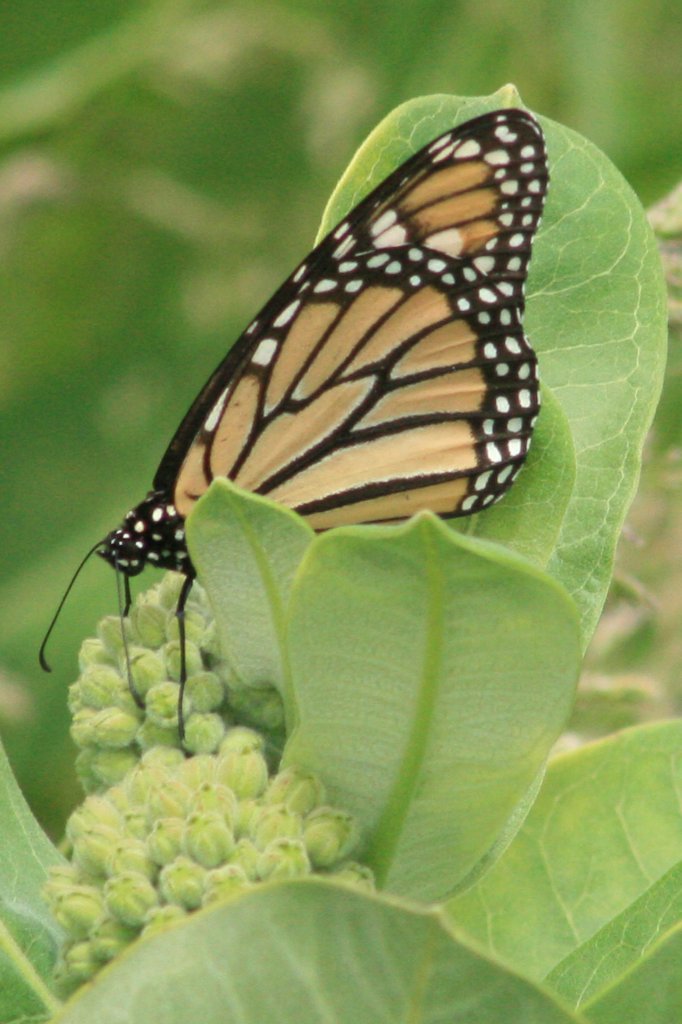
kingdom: Animalia
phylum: Arthropoda
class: Insecta
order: Lepidoptera
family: Nymphalidae
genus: Danaus
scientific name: Danaus plexippus
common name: Monarch
